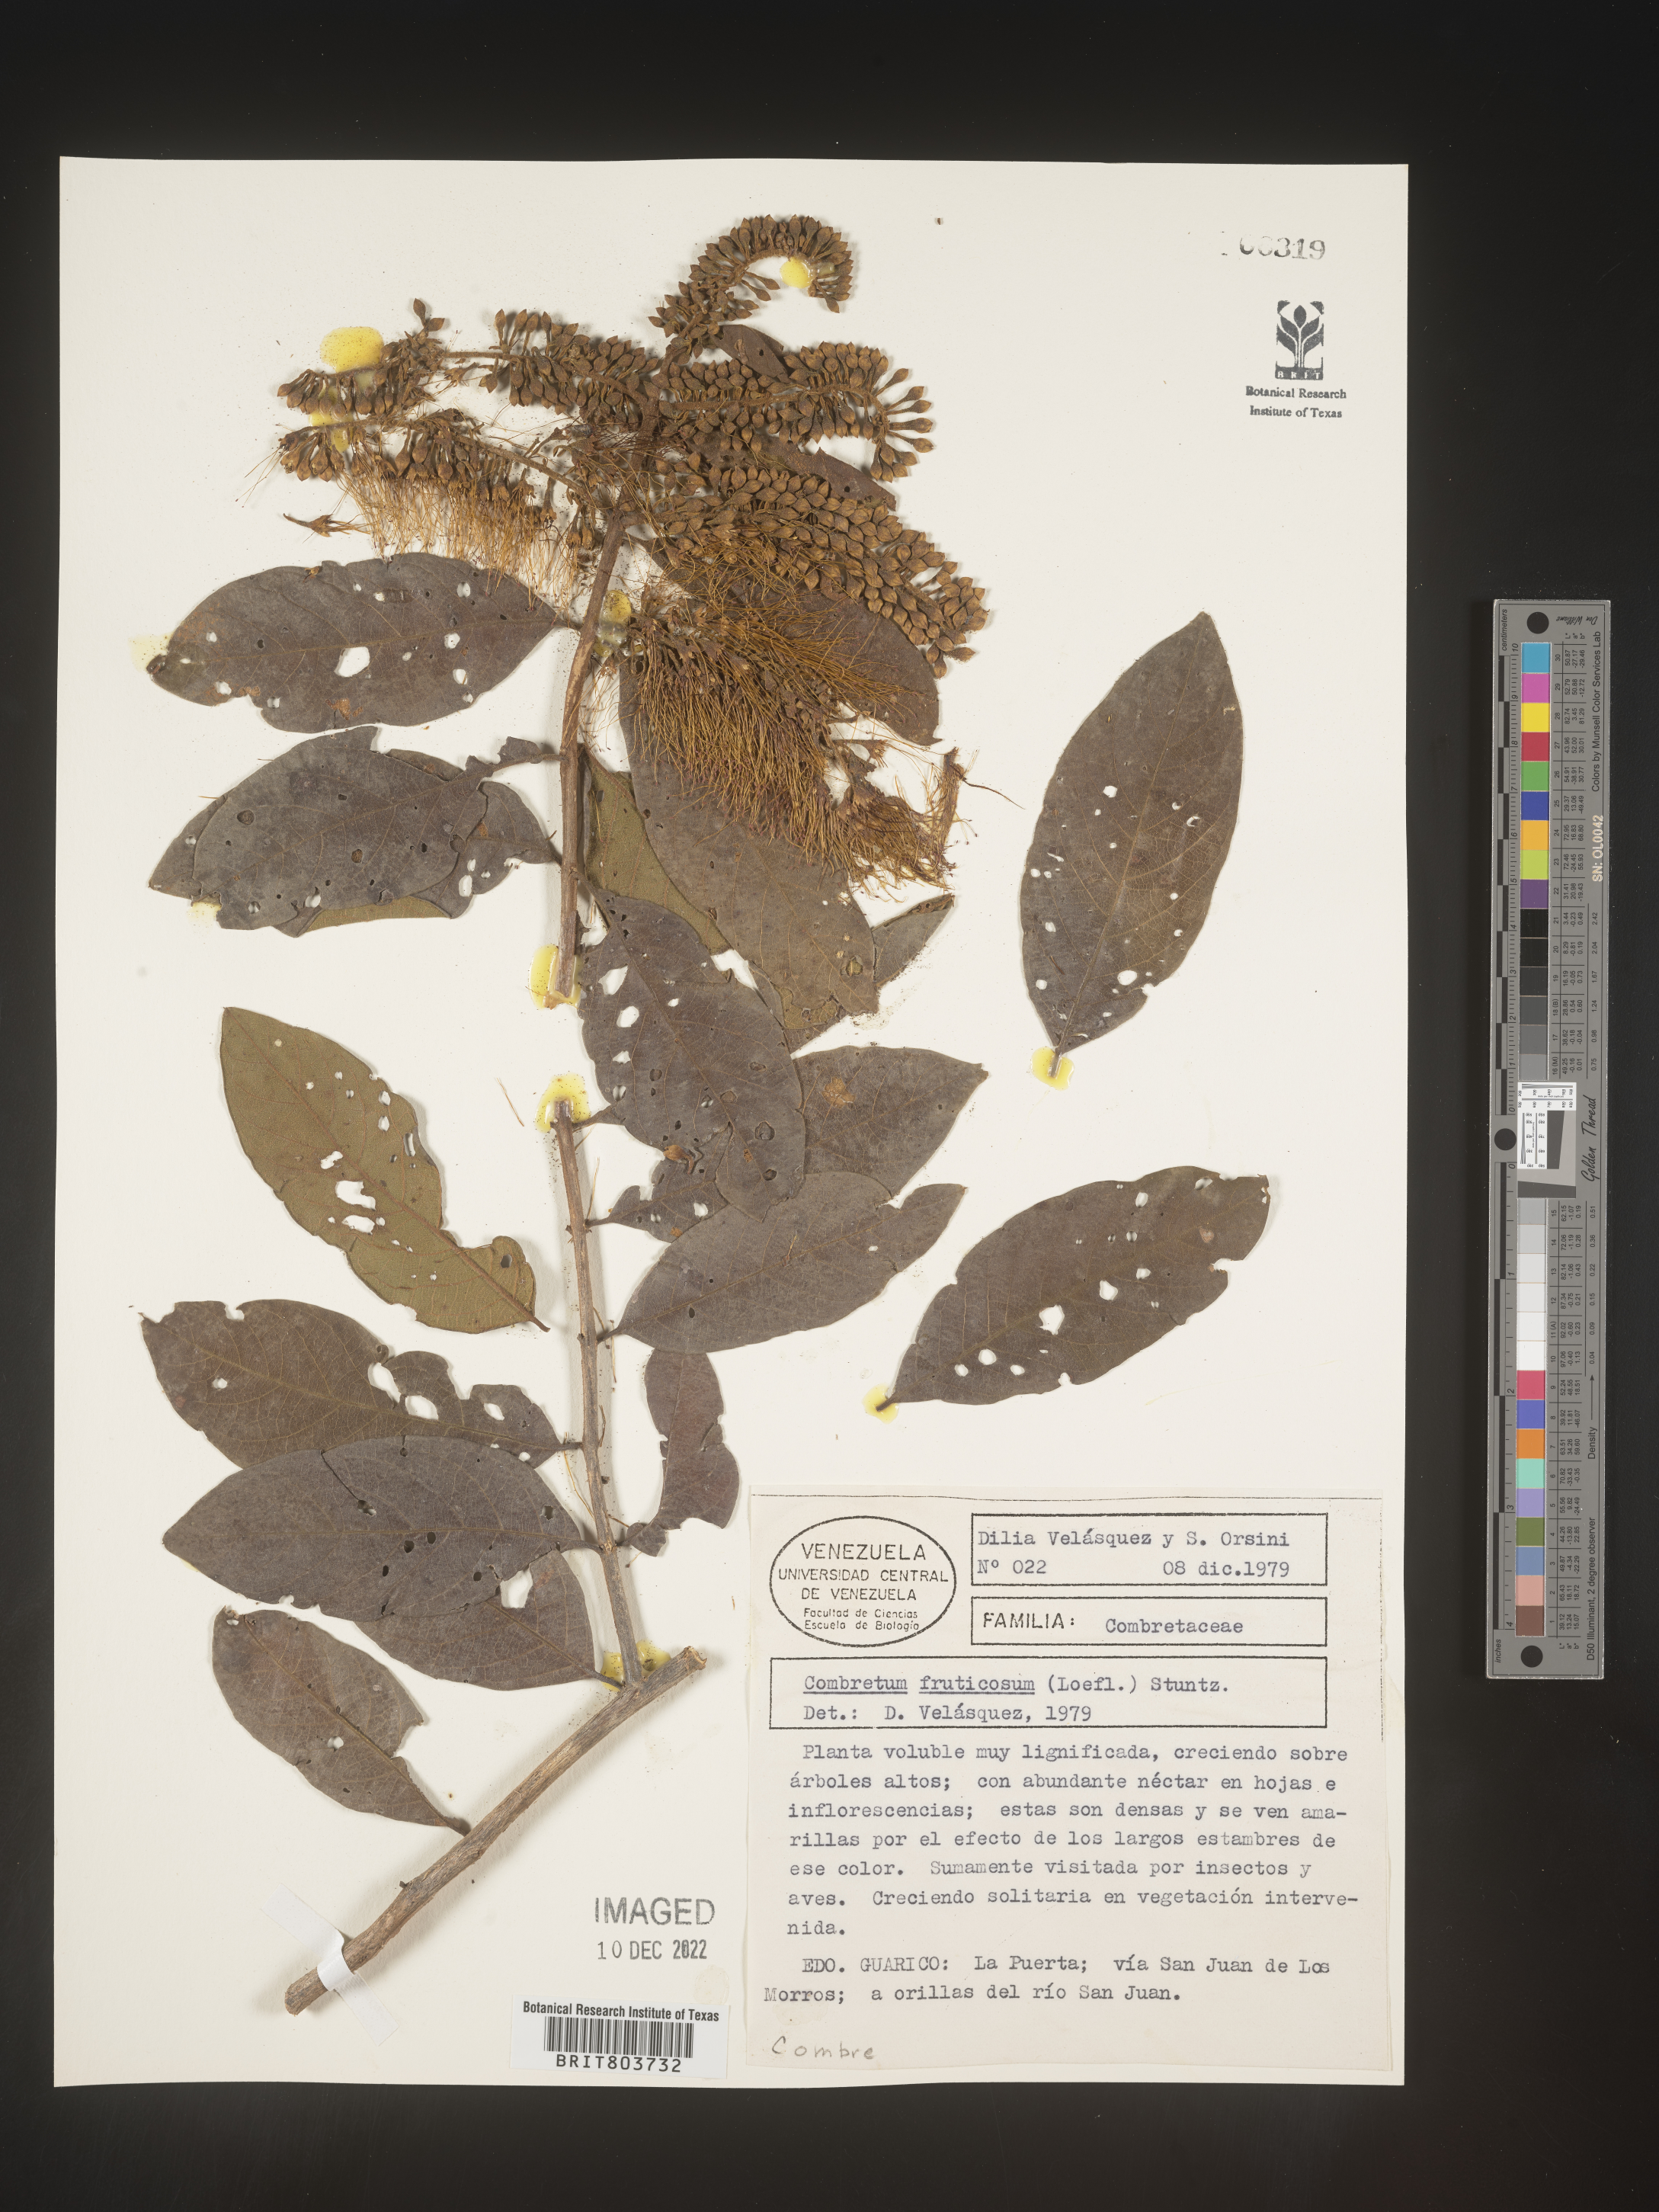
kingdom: Plantae
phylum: Tracheophyta
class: Magnoliopsida
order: Myrtales
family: Combretaceae
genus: Combretum
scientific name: Combretum
